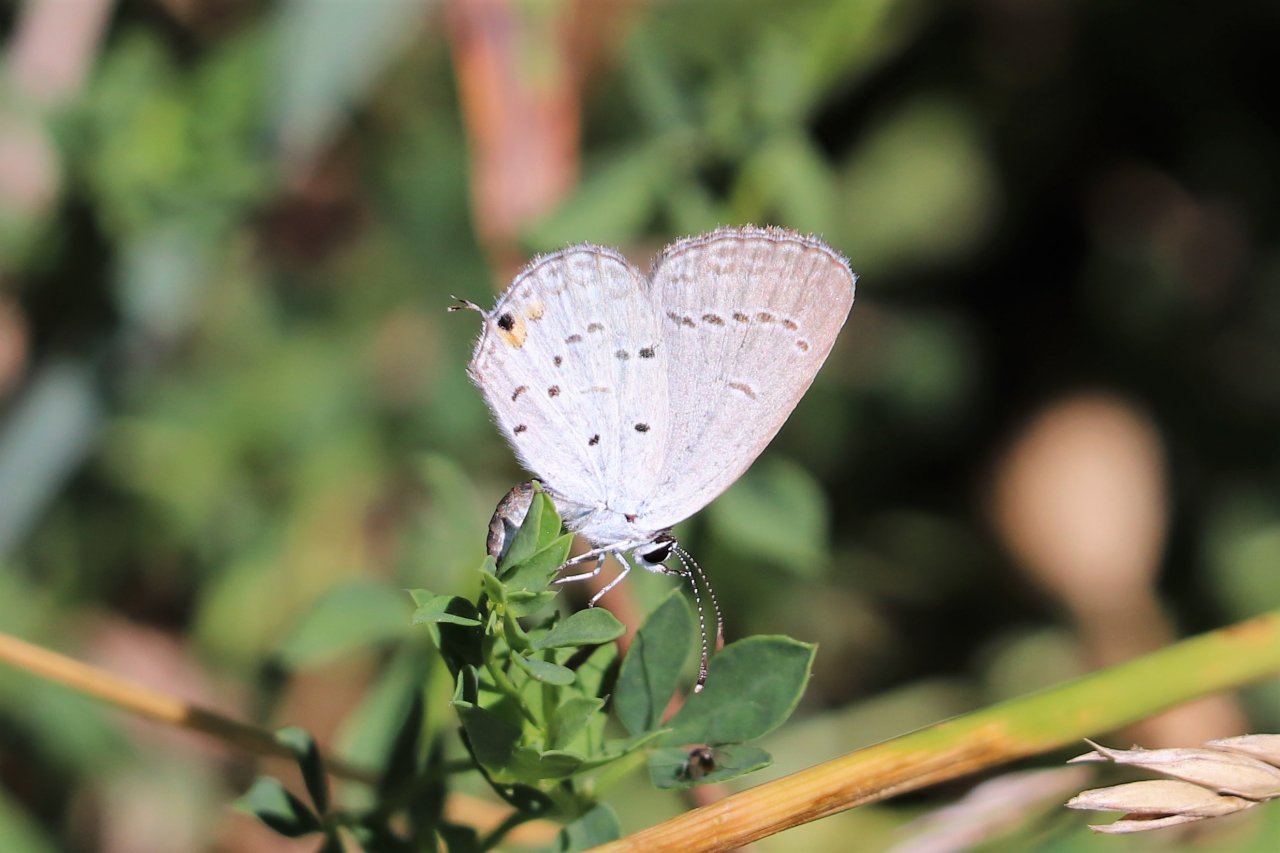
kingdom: Animalia
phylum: Arthropoda
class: Insecta
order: Lepidoptera
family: Lycaenidae
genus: Elkalyce
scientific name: Elkalyce comyntas
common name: Eastern Tailed-Blue
